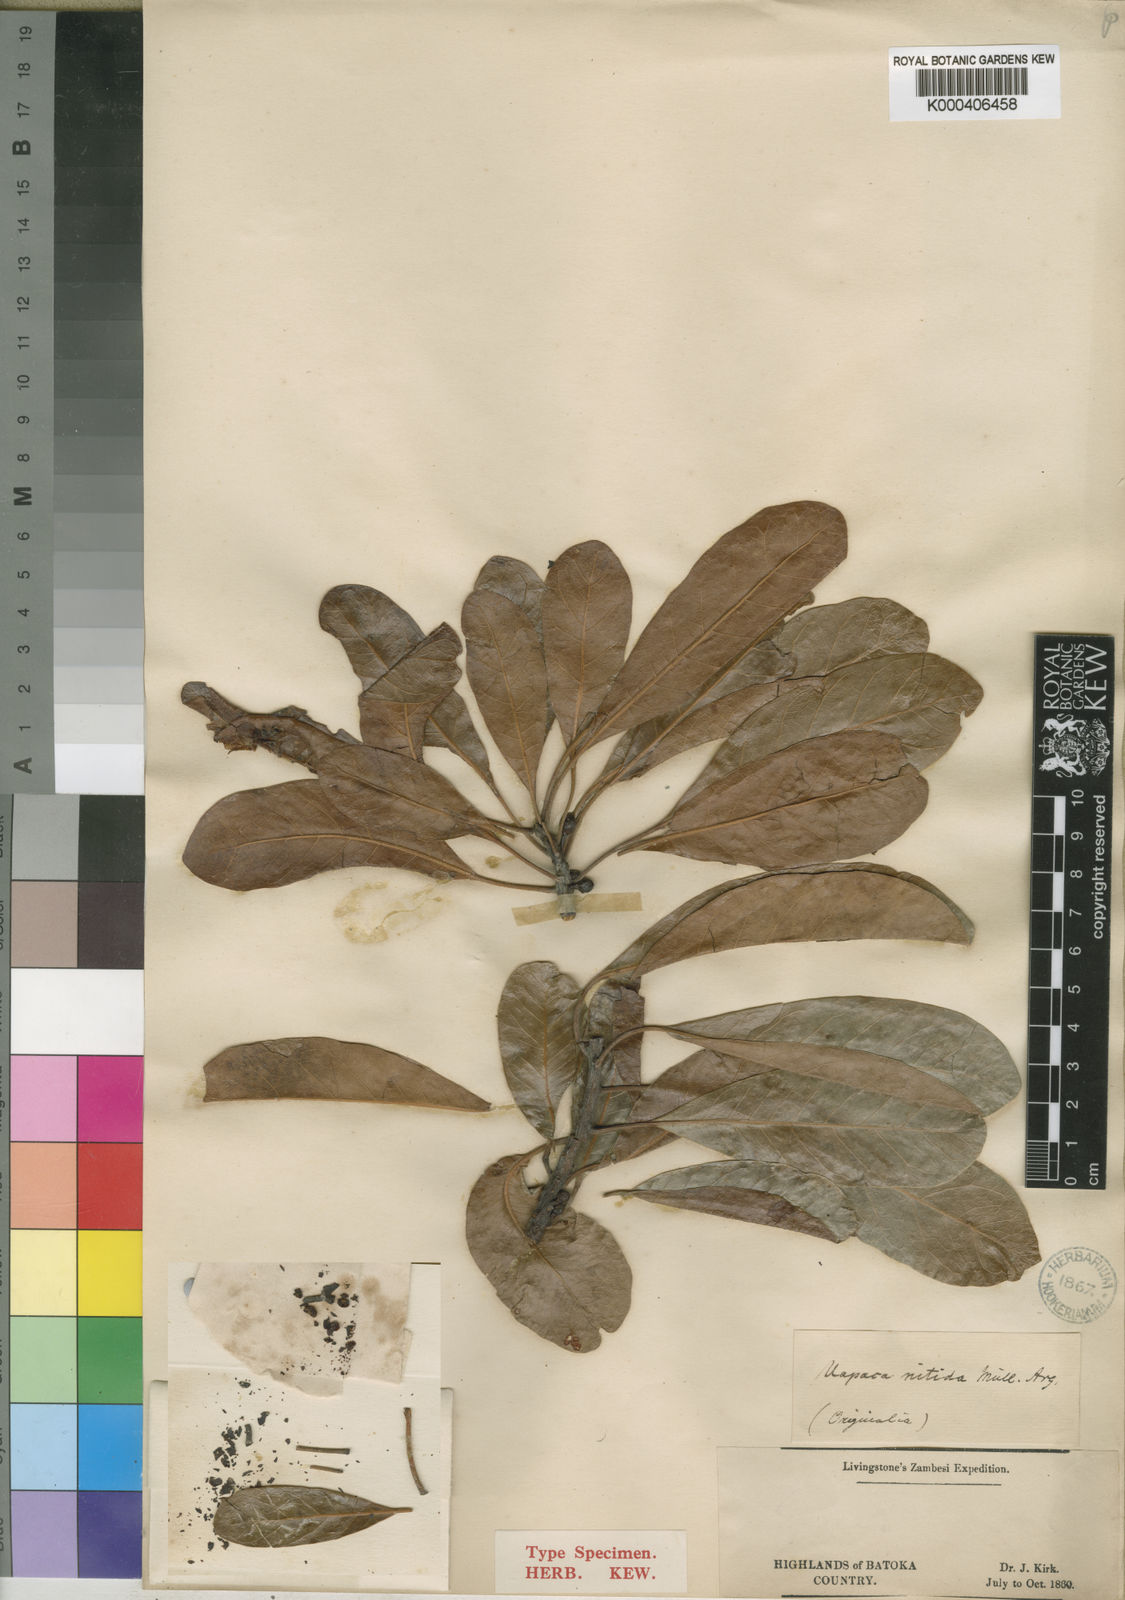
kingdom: Plantae
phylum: Tracheophyta
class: Magnoliopsida
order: Malpighiales
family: Phyllanthaceae
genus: Uapaca
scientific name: Uapaca
